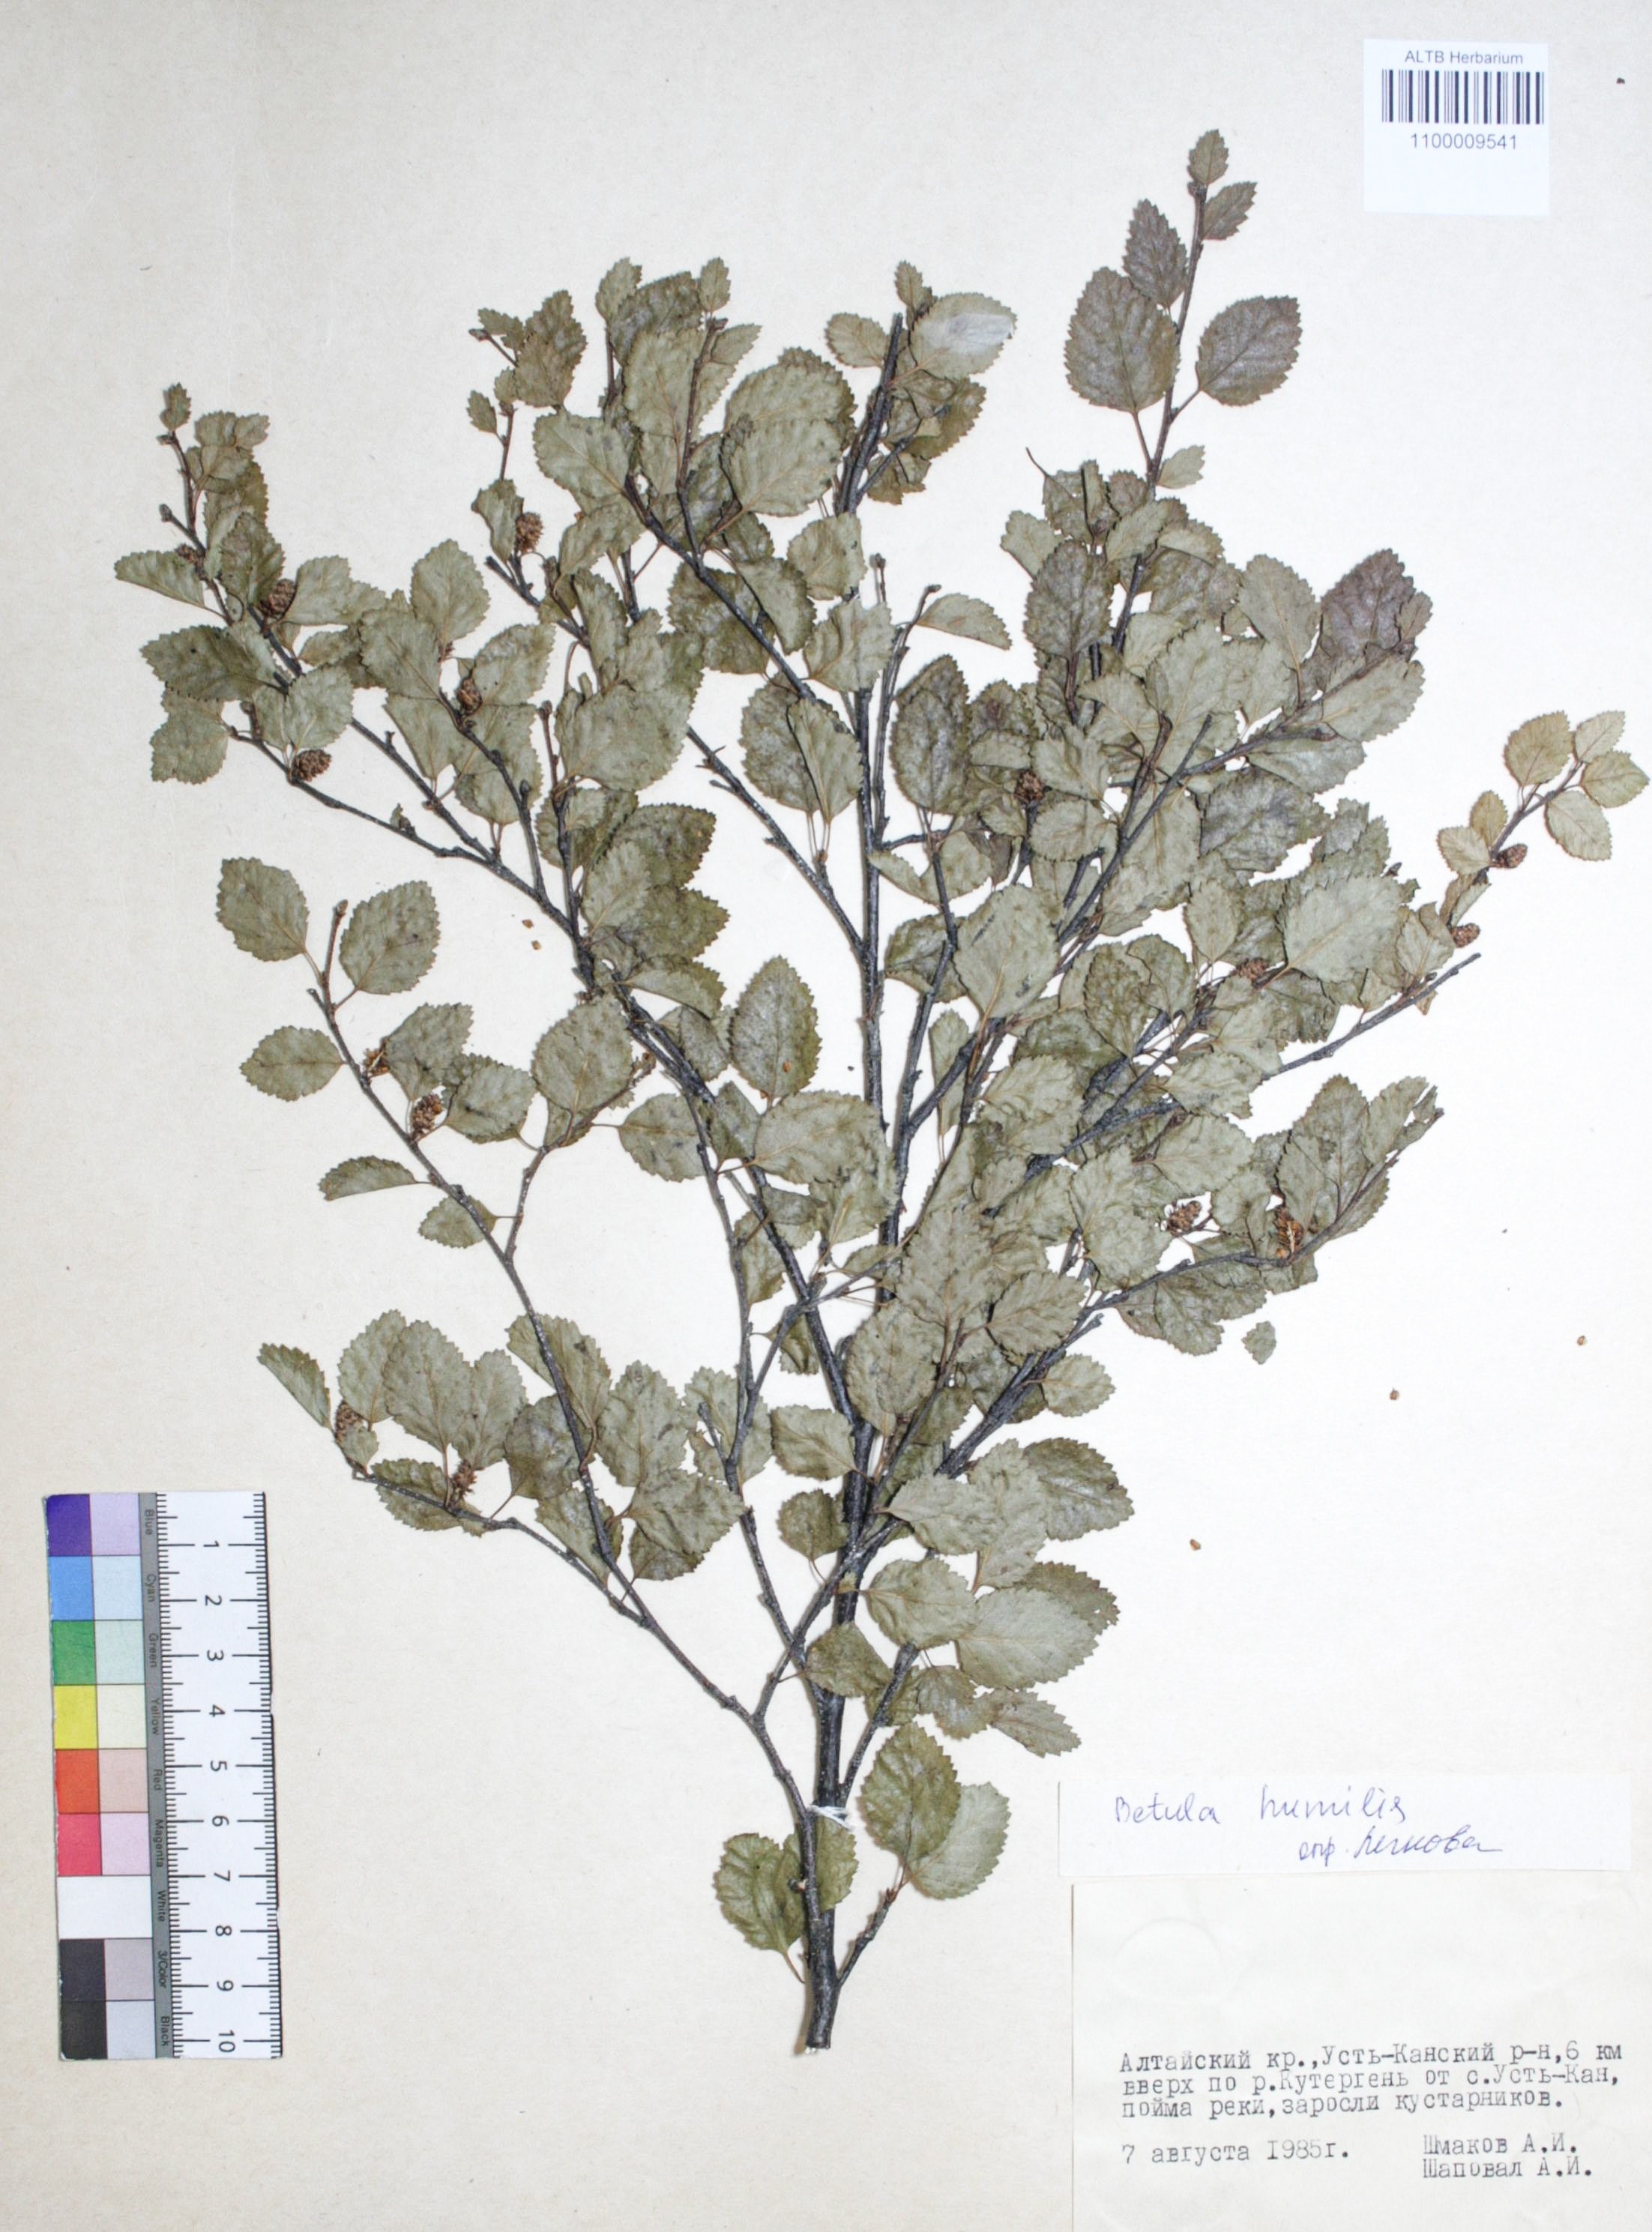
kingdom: Plantae
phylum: Tracheophyta
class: Magnoliopsida
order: Fagales
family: Betulaceae
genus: Betula
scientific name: Betula humilis
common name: Shrubby birch
